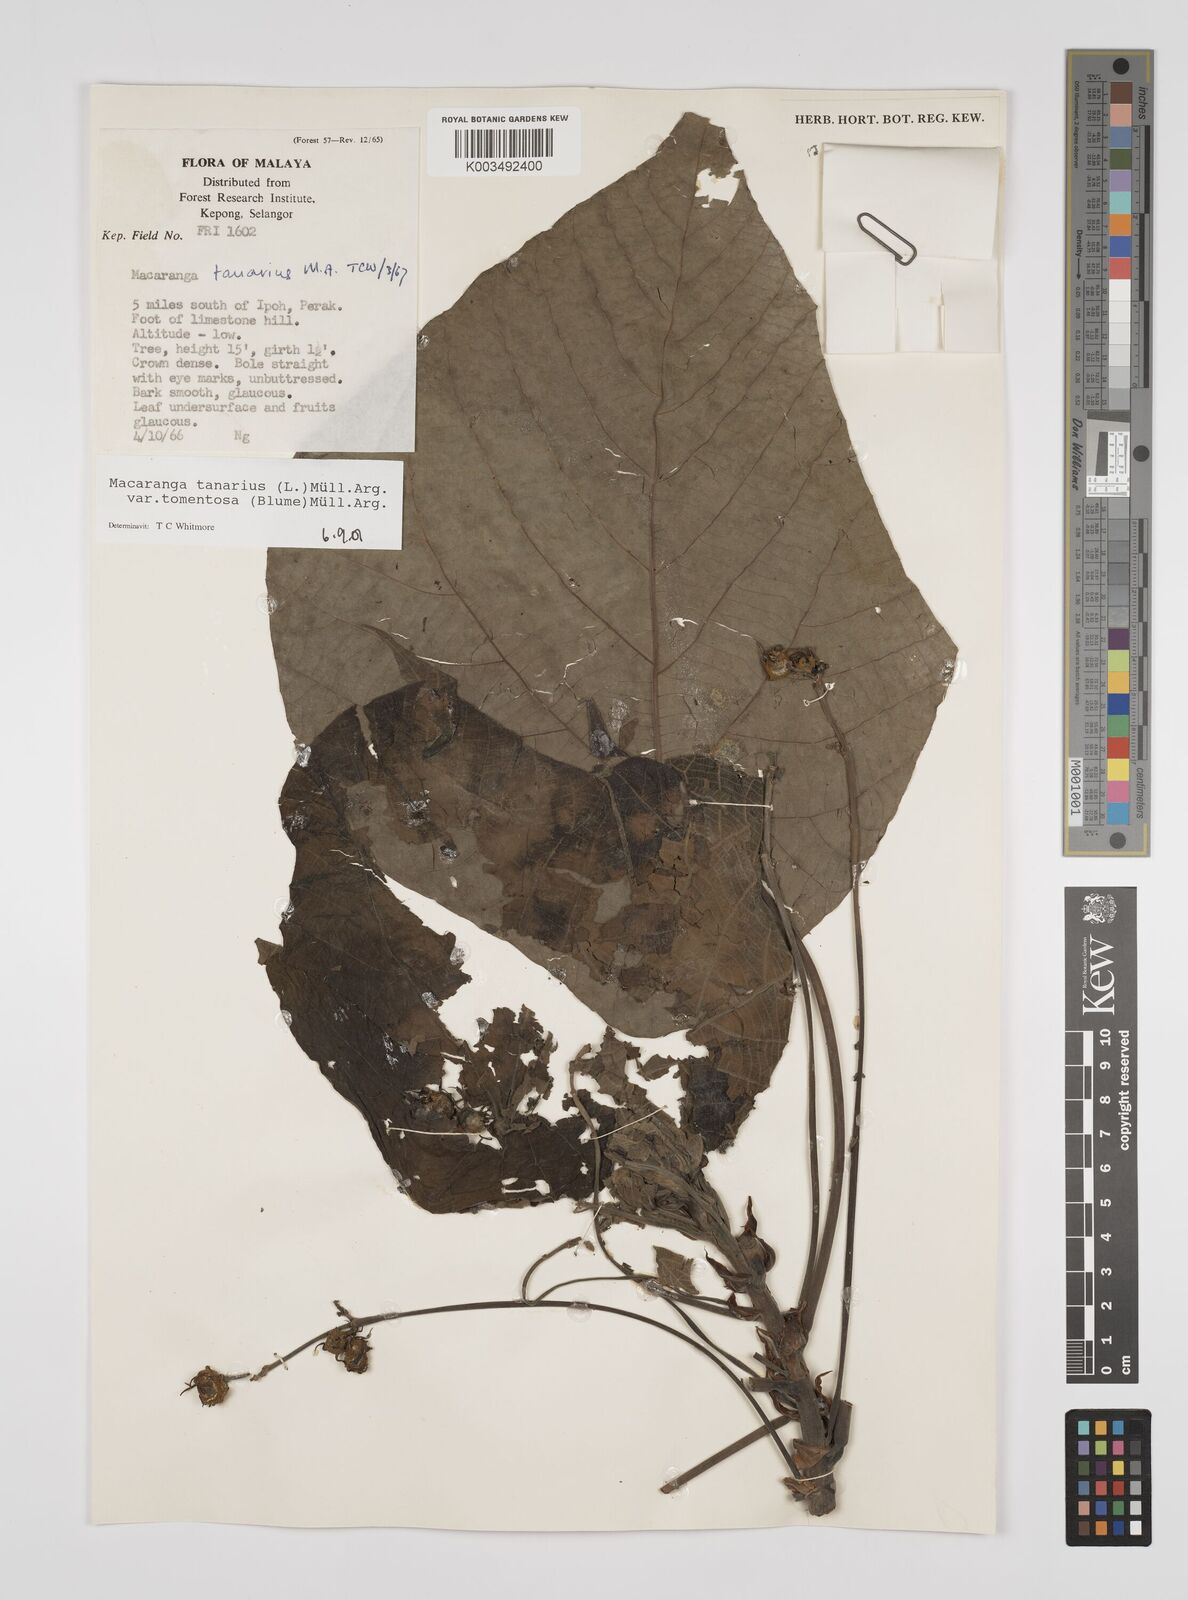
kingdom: Plantae
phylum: Tracheophyta
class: Magnoliopsida
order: Malpighiales
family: Euphorbiaceae
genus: Macaranga
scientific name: Macaranga tanarius
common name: Parasol leaf tree
